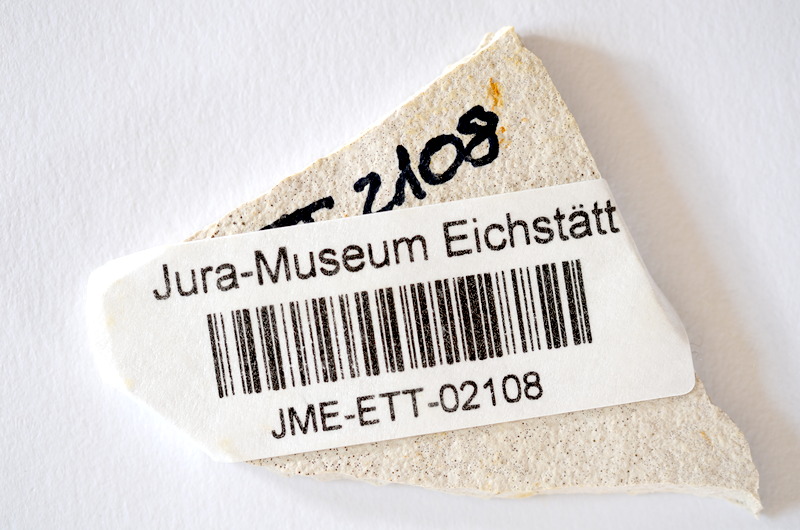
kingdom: Animalia
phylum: Chordata
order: Salmoniformes
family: Orthogonikleithridae
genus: Orthogonikleithrus
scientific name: Orthogonikleithrus hoelli
